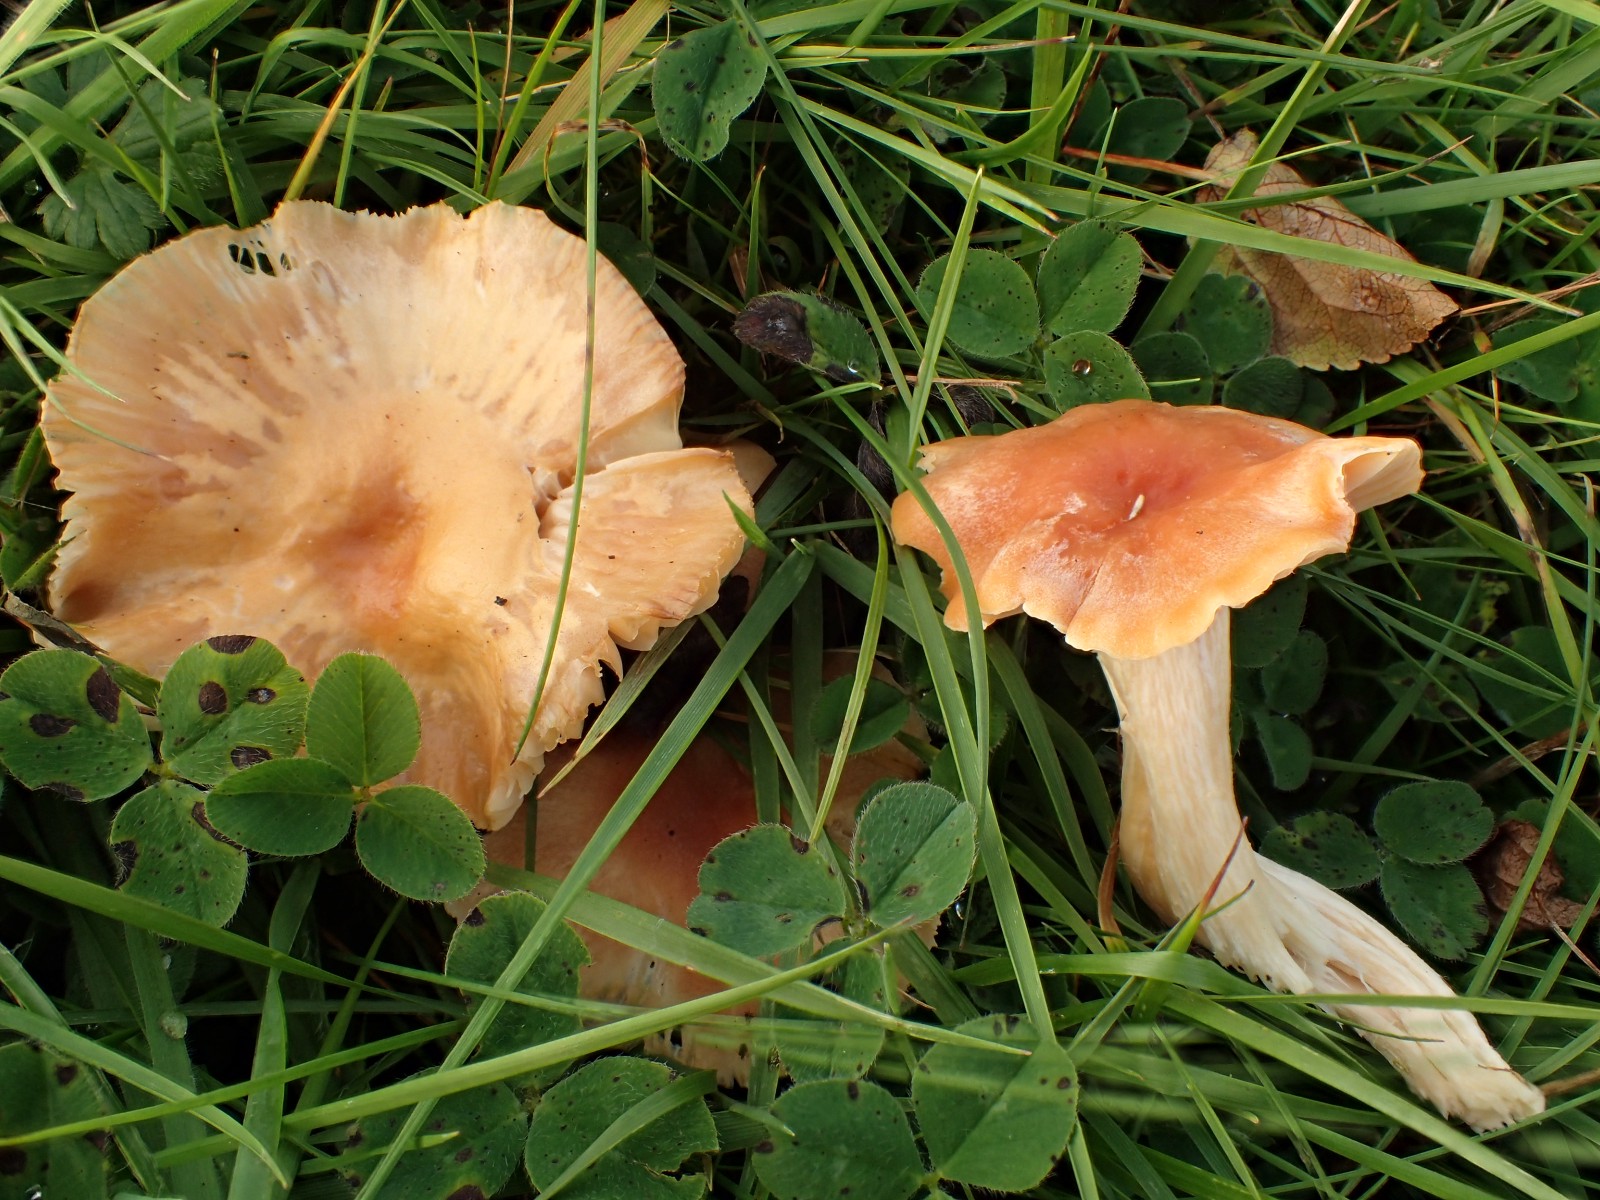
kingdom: Fungi
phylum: Basidiomycota
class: Agaricomycetes
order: Agaricales
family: Hygrophoraceae
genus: Cuphophyllus
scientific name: Cuphophyllus pratensis
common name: eng-vokshat
